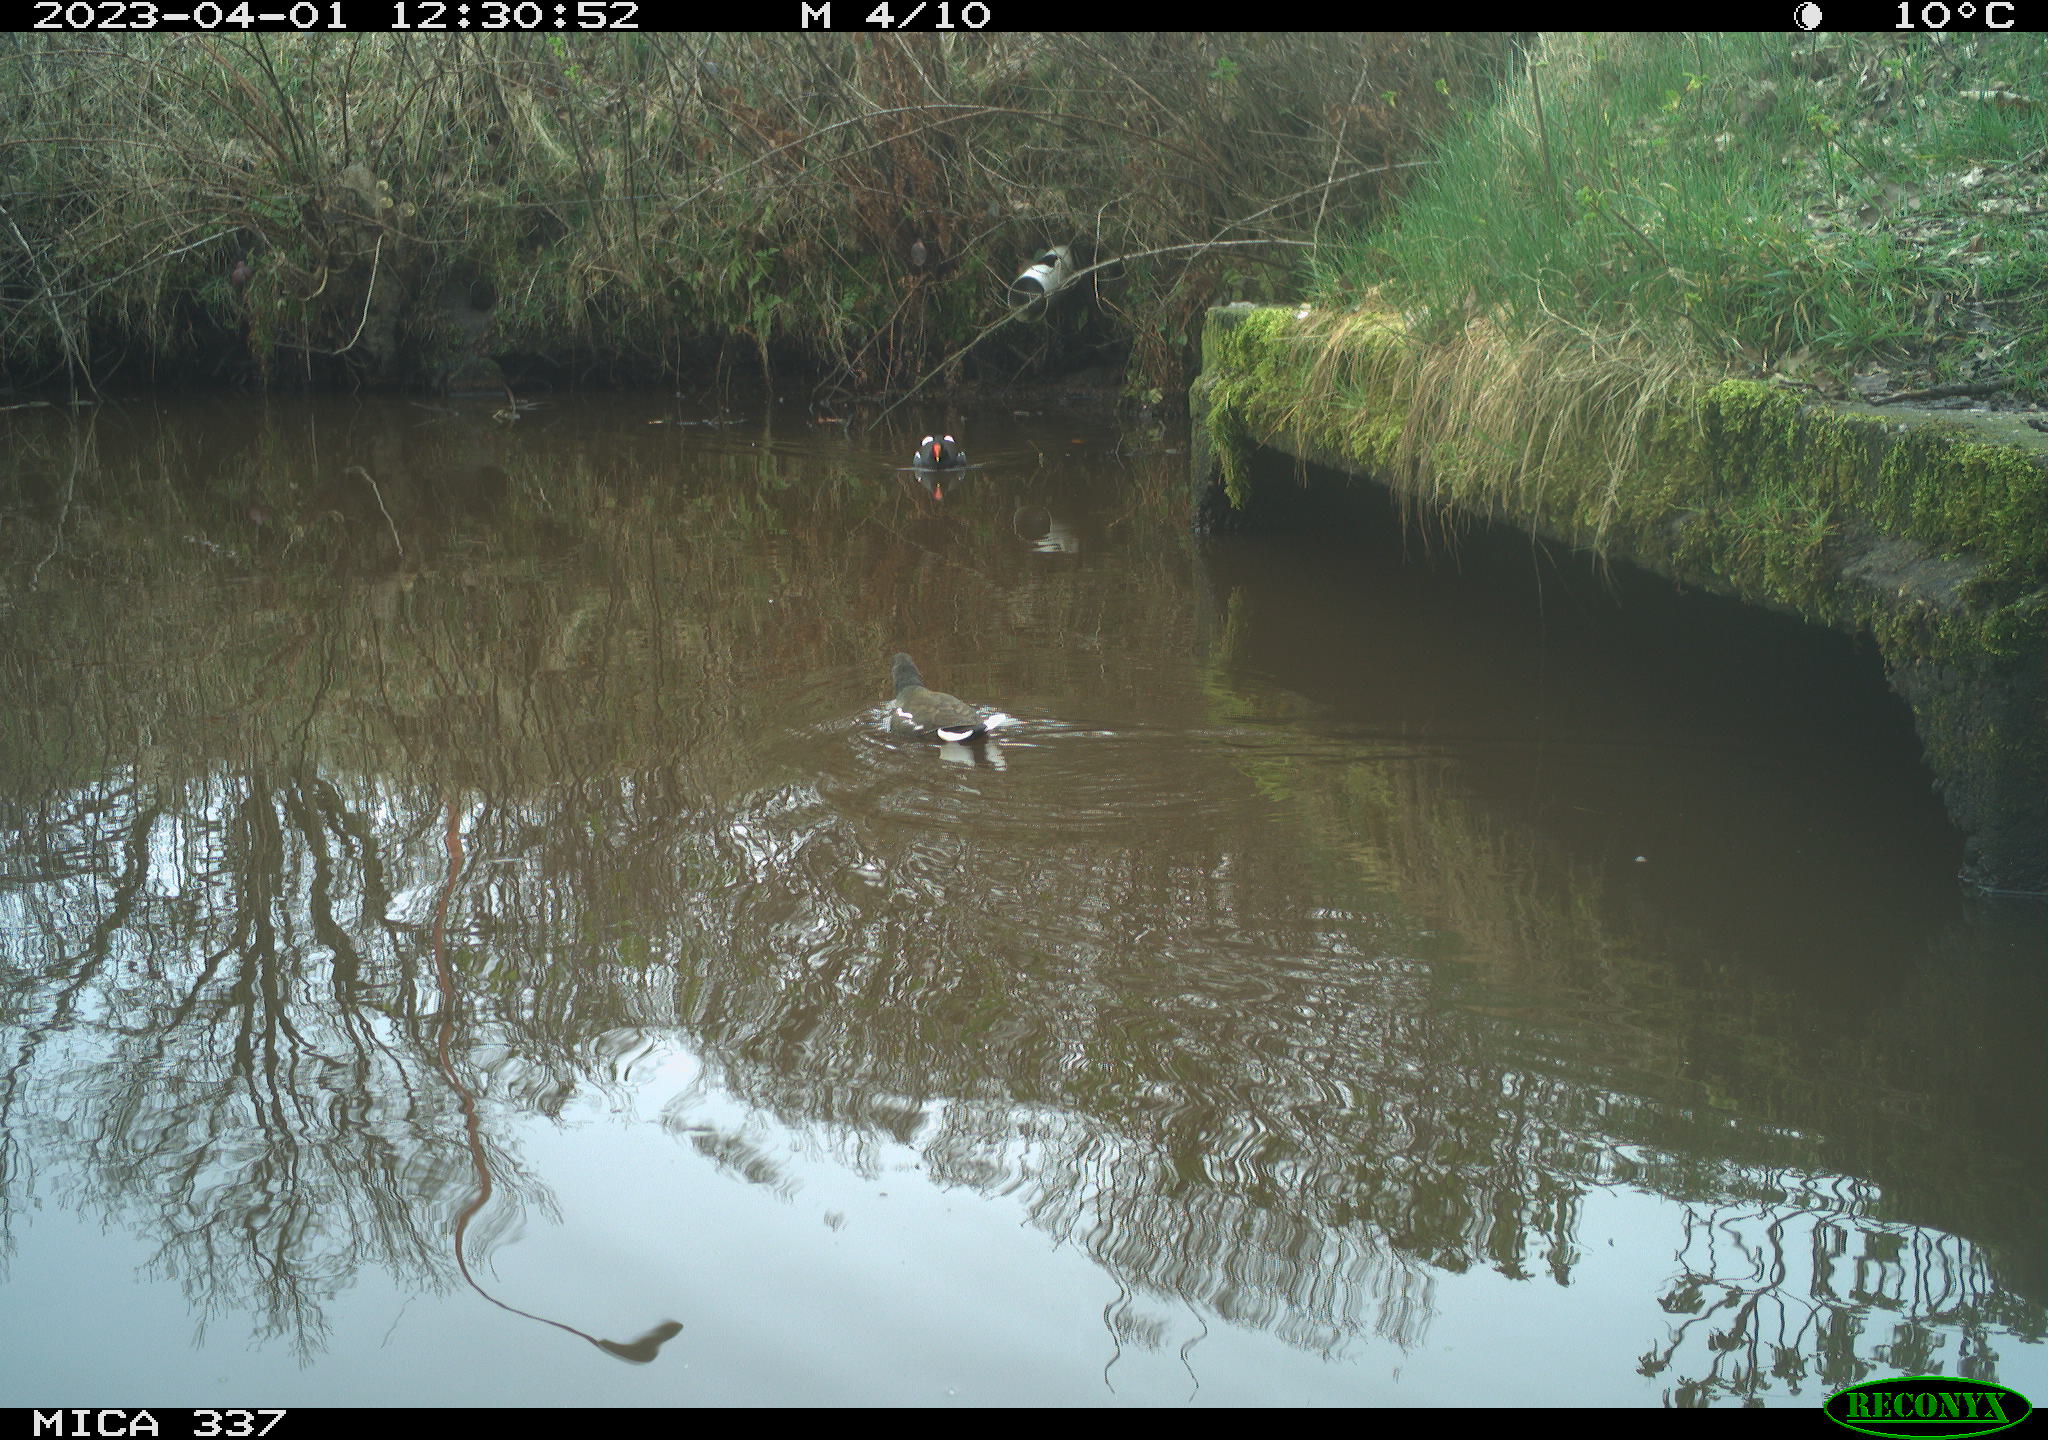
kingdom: Animalia
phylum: Chordata
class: Aves
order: Gruiformes
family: Rallidae
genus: Gallinula
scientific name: Gallinula chloropus
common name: Common moorhen
